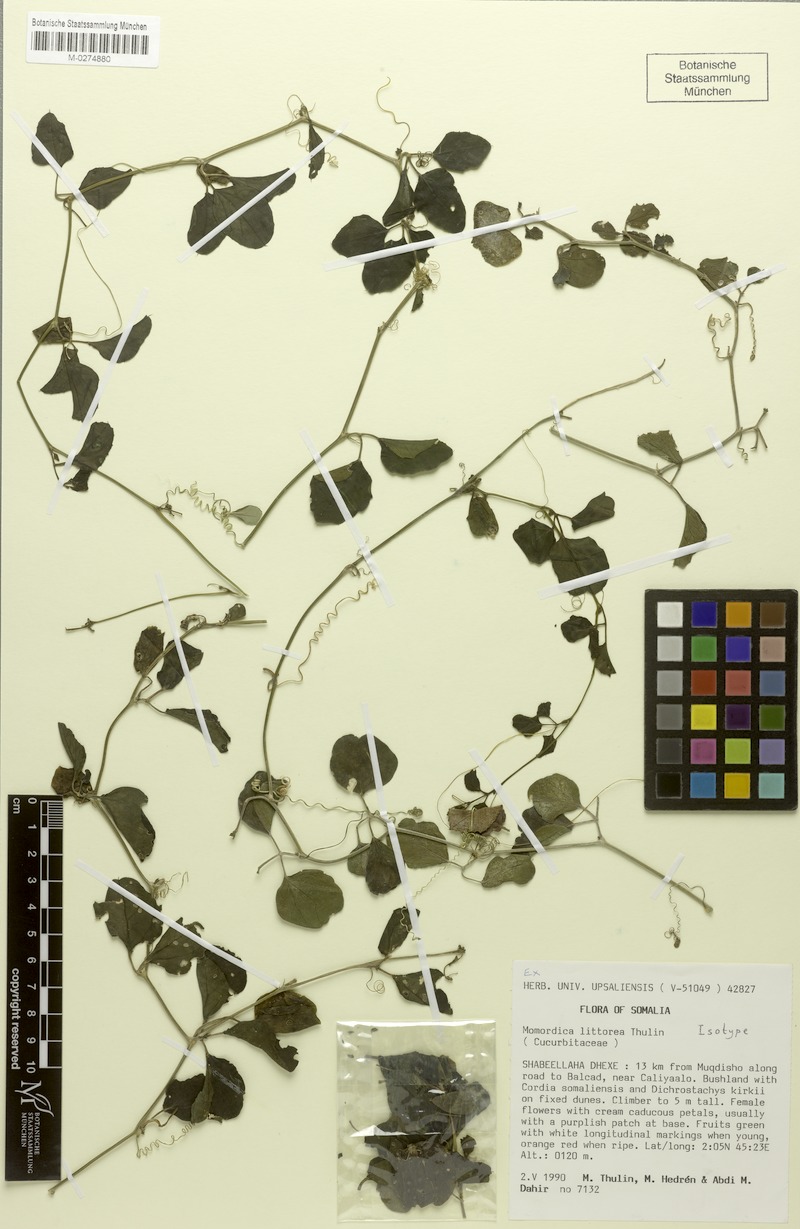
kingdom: Plantae
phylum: Tracheophyta
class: Magnoliopsida
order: Cucurbitales
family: Cucurbitaceae
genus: Momordica
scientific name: Momordica littorea
